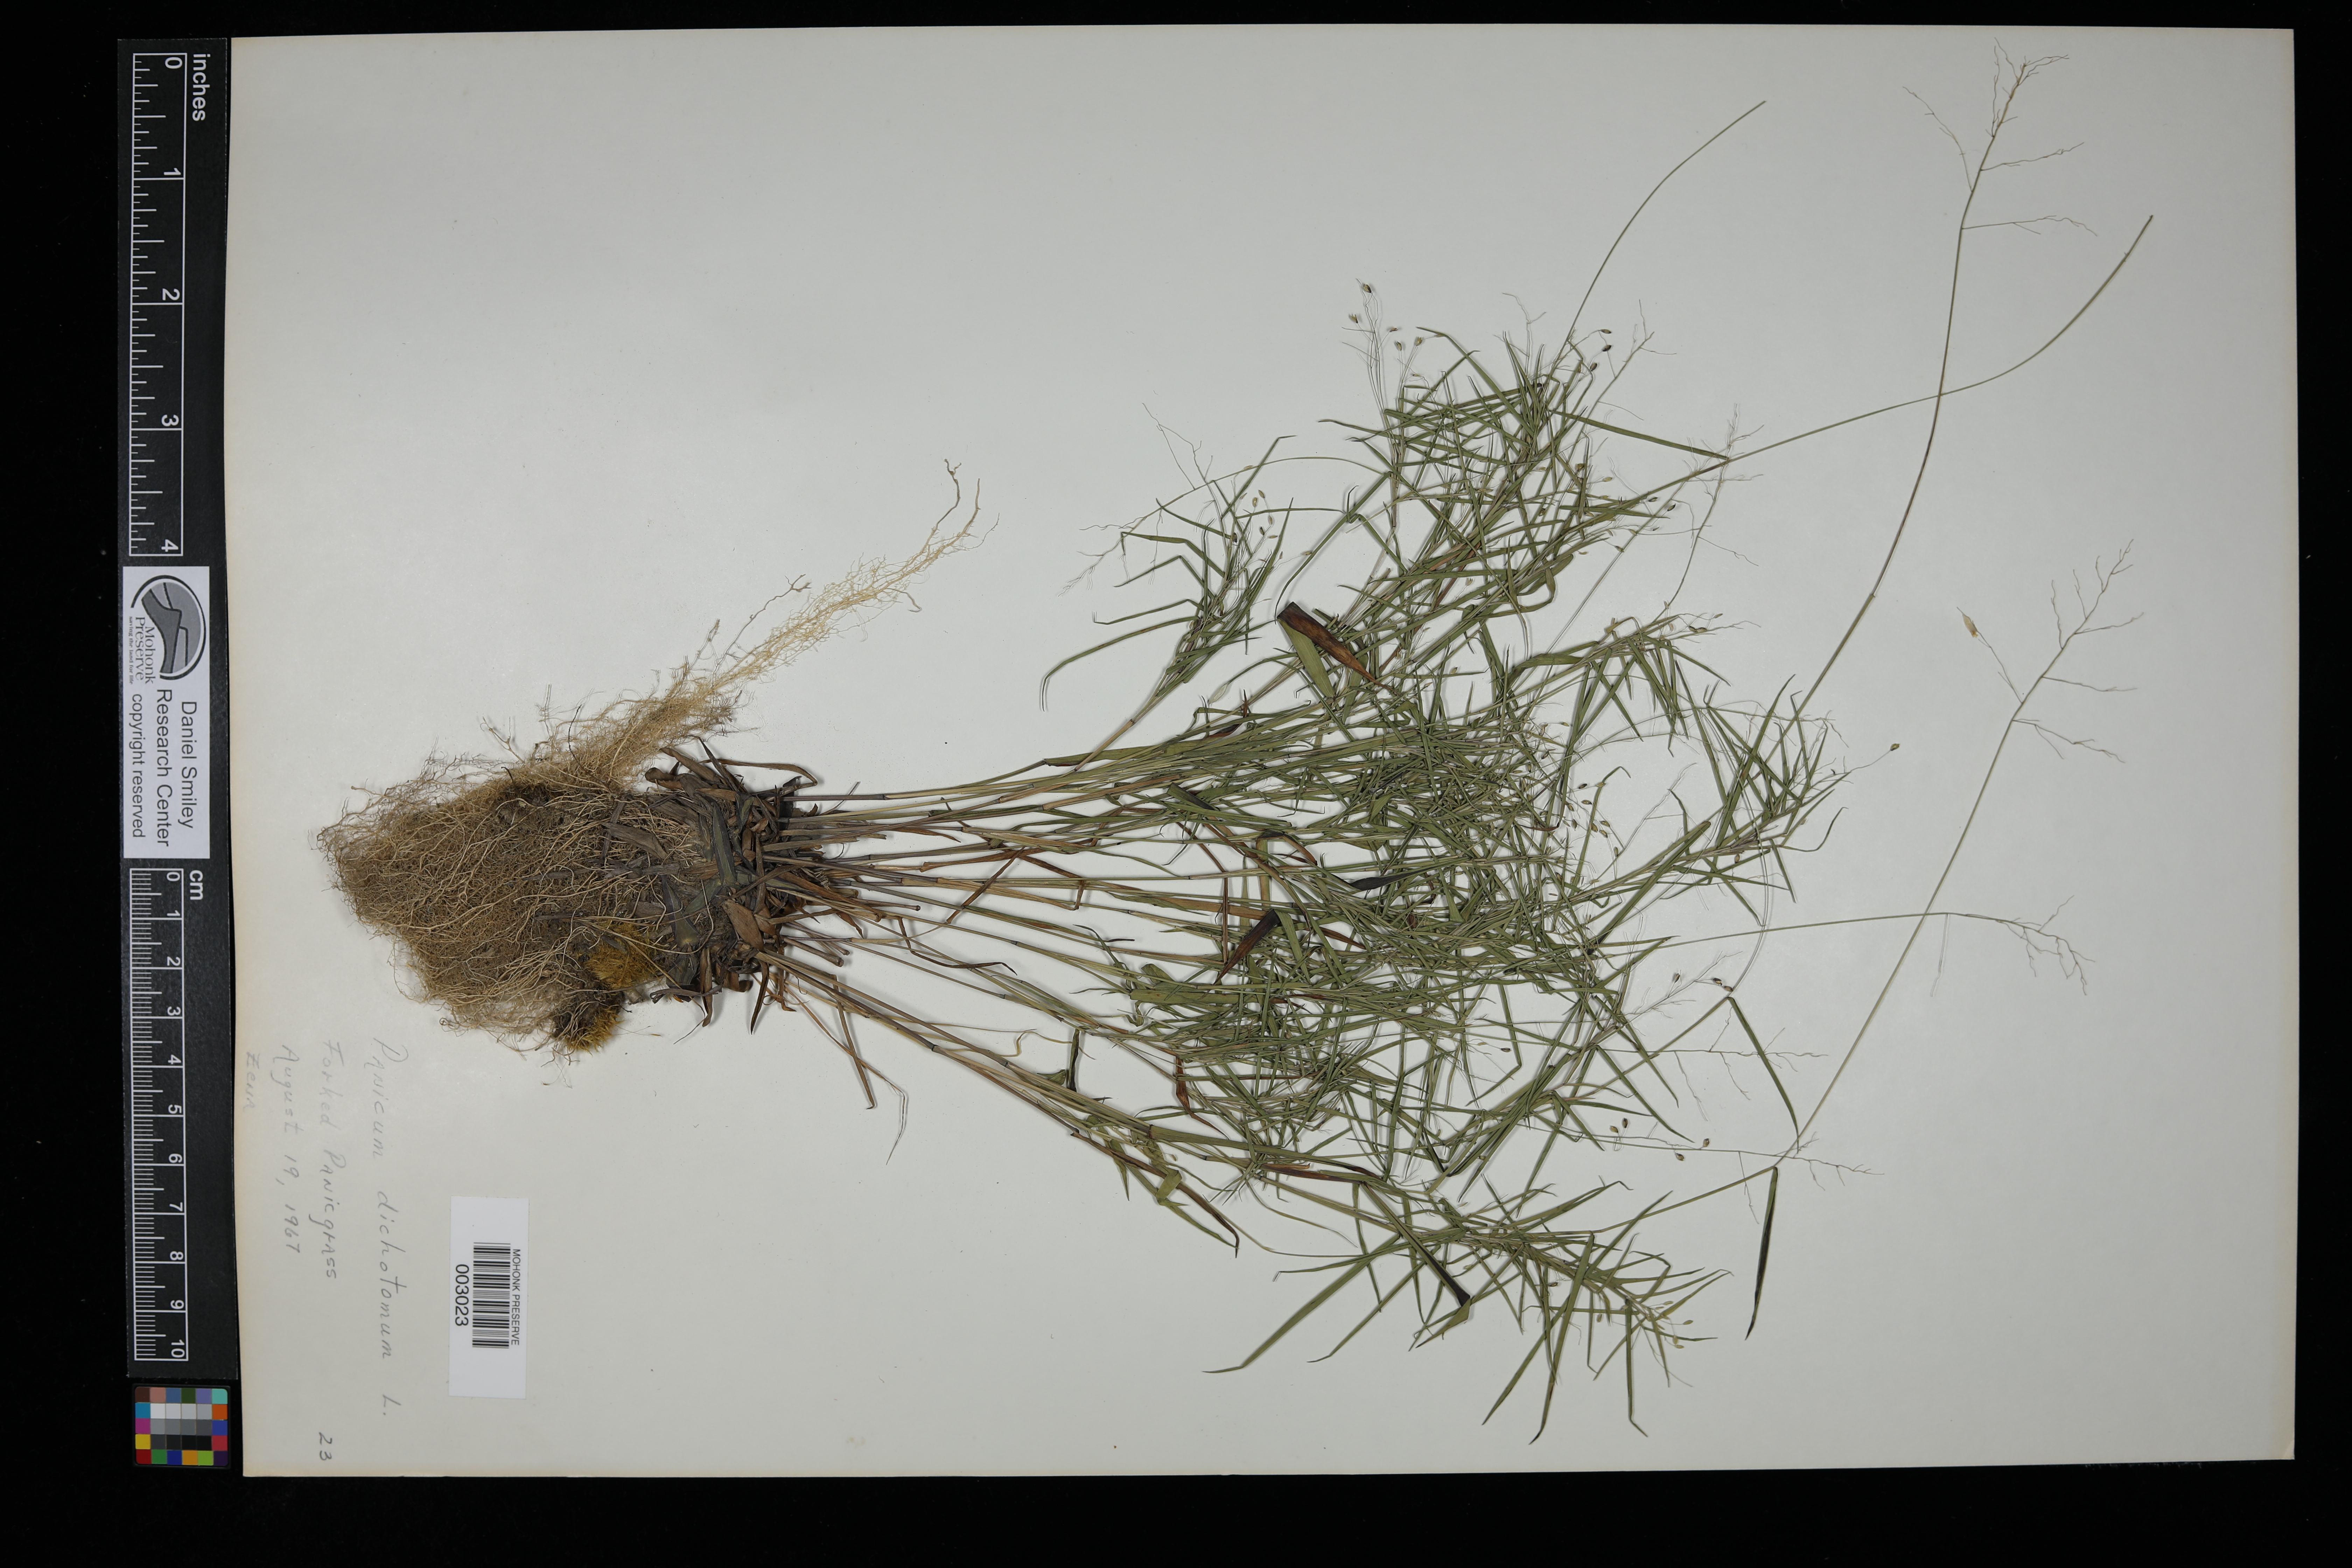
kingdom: Plantae
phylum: Tracheophyta
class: Liliopsida
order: Poales
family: Poaceae
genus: Dichanthelium
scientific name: Dichanthelium dichotomum
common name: Cypress panicgrass
